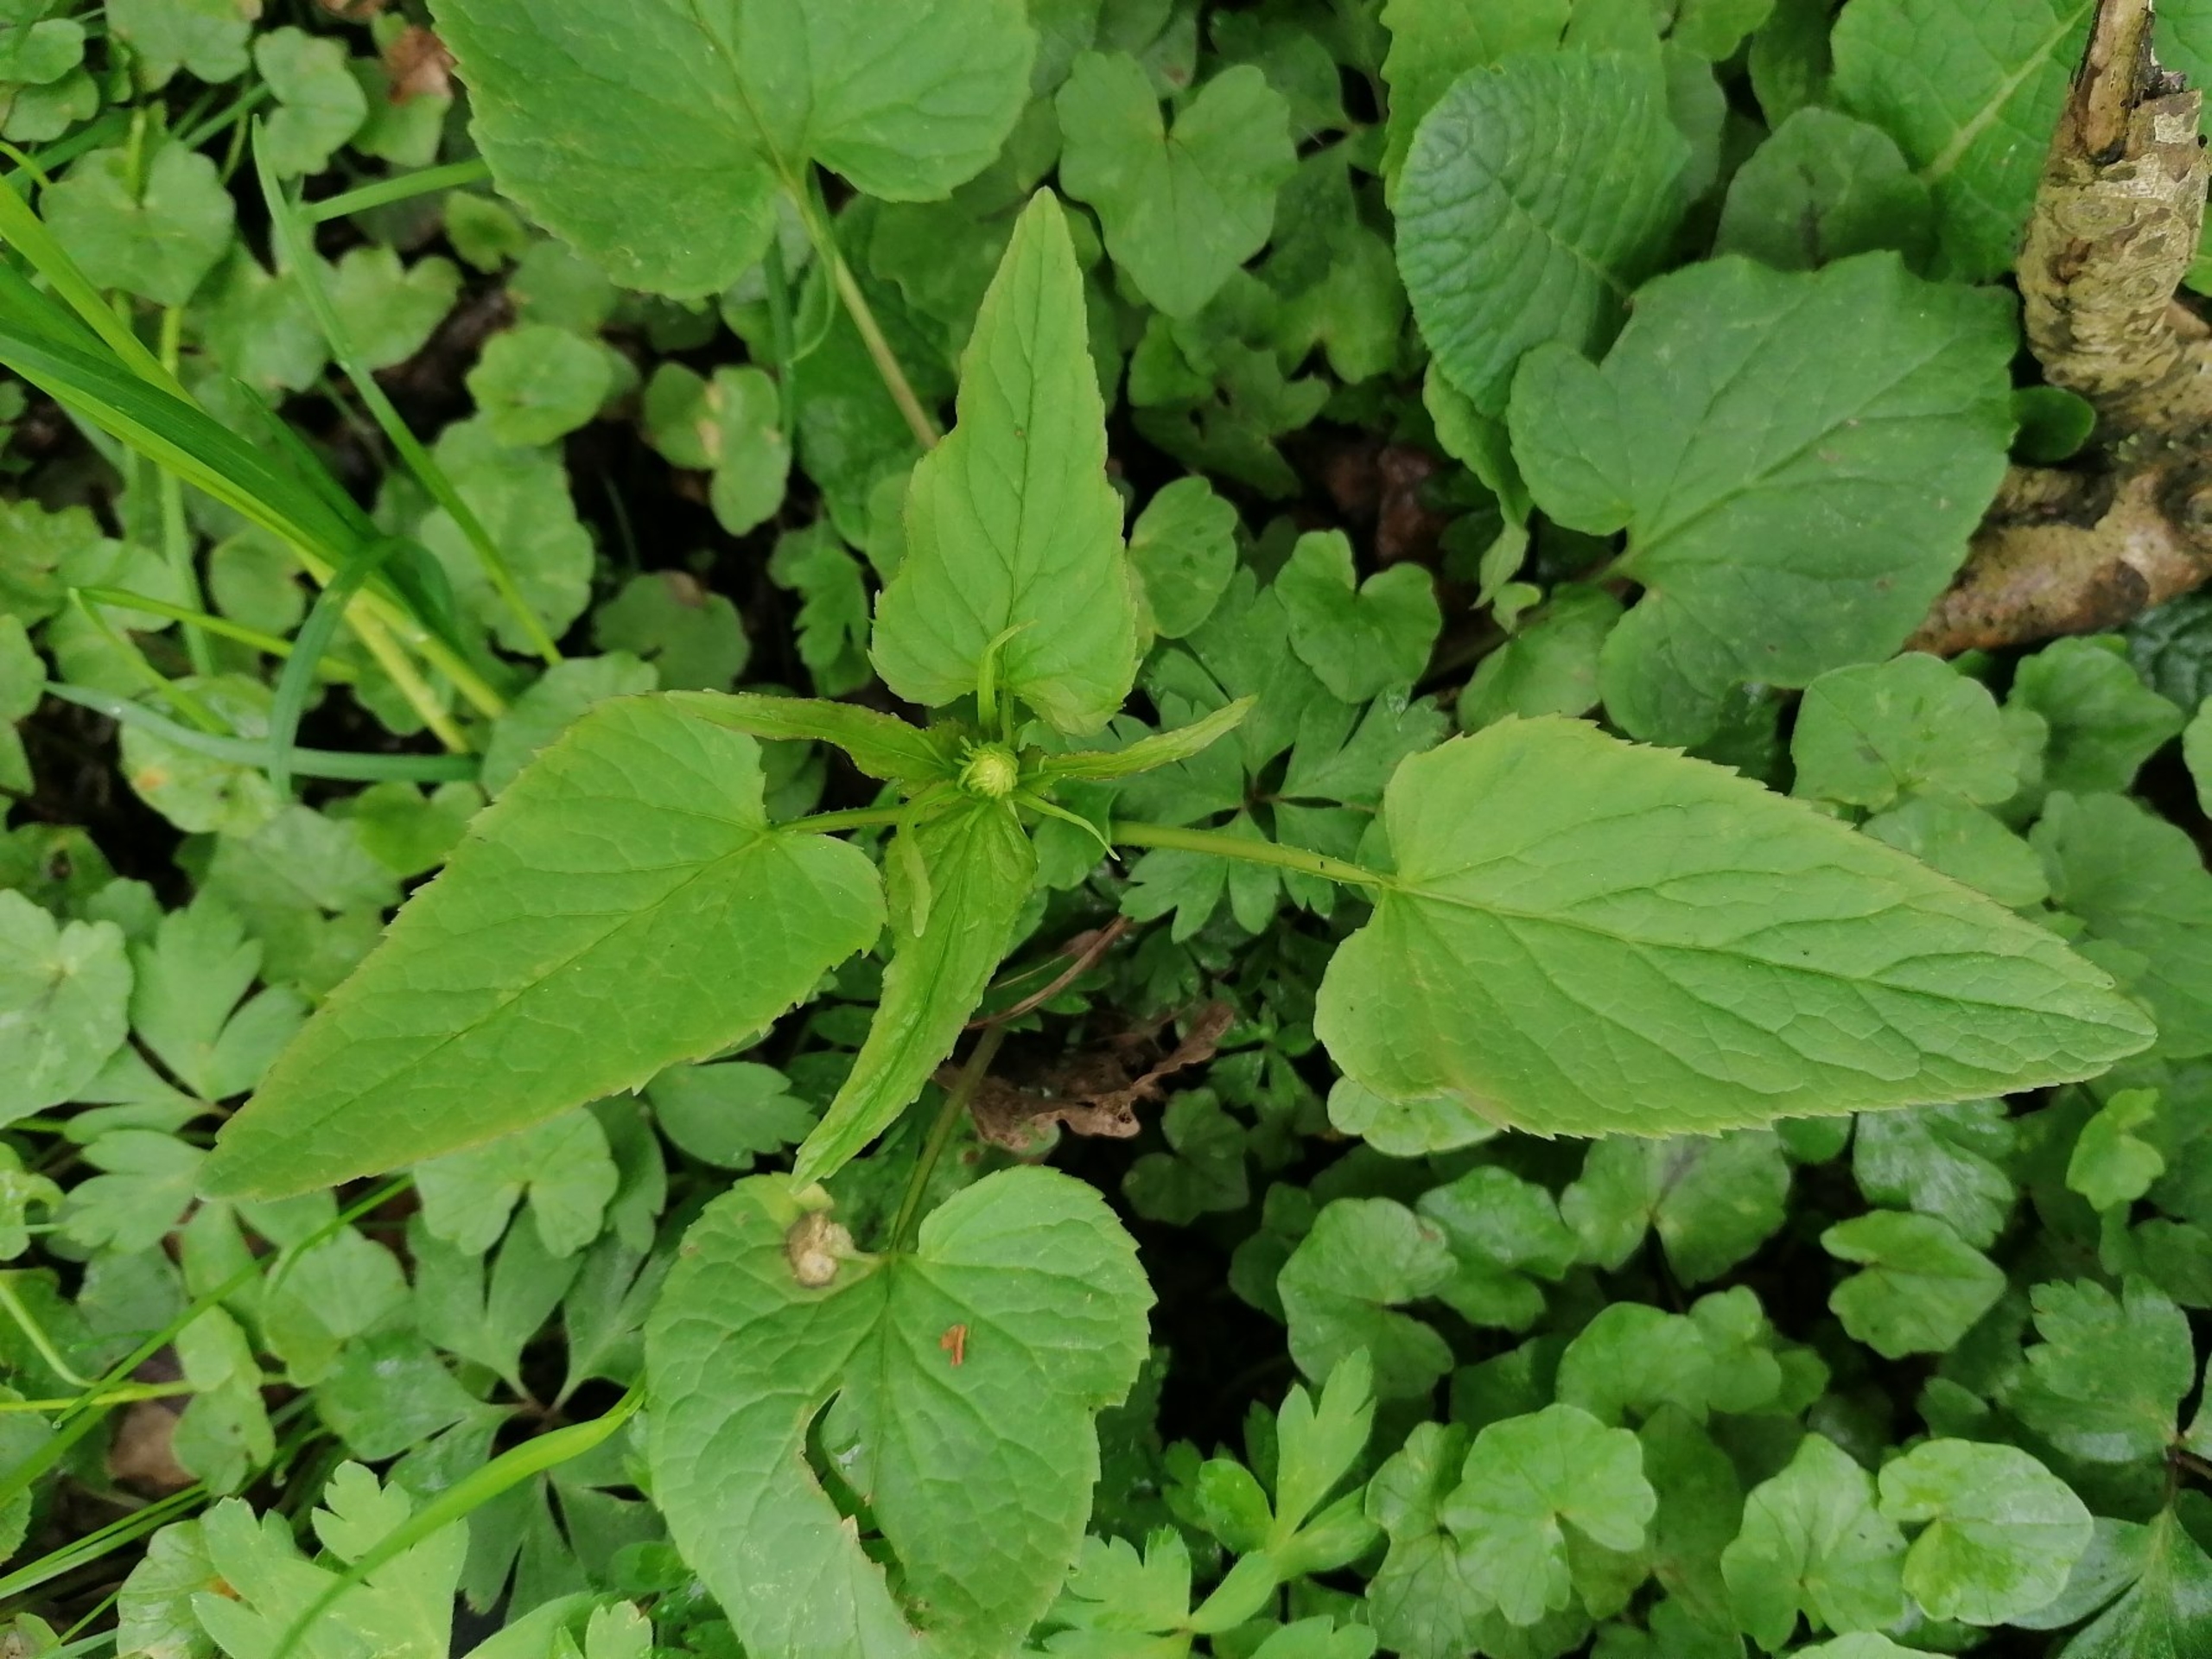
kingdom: Plantae
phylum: Tracheophyta
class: Magnoliopsida
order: Asterales
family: Campanulaceae
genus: Phyteuma
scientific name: Phyteuma spicatum
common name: Aks-rapunsel
